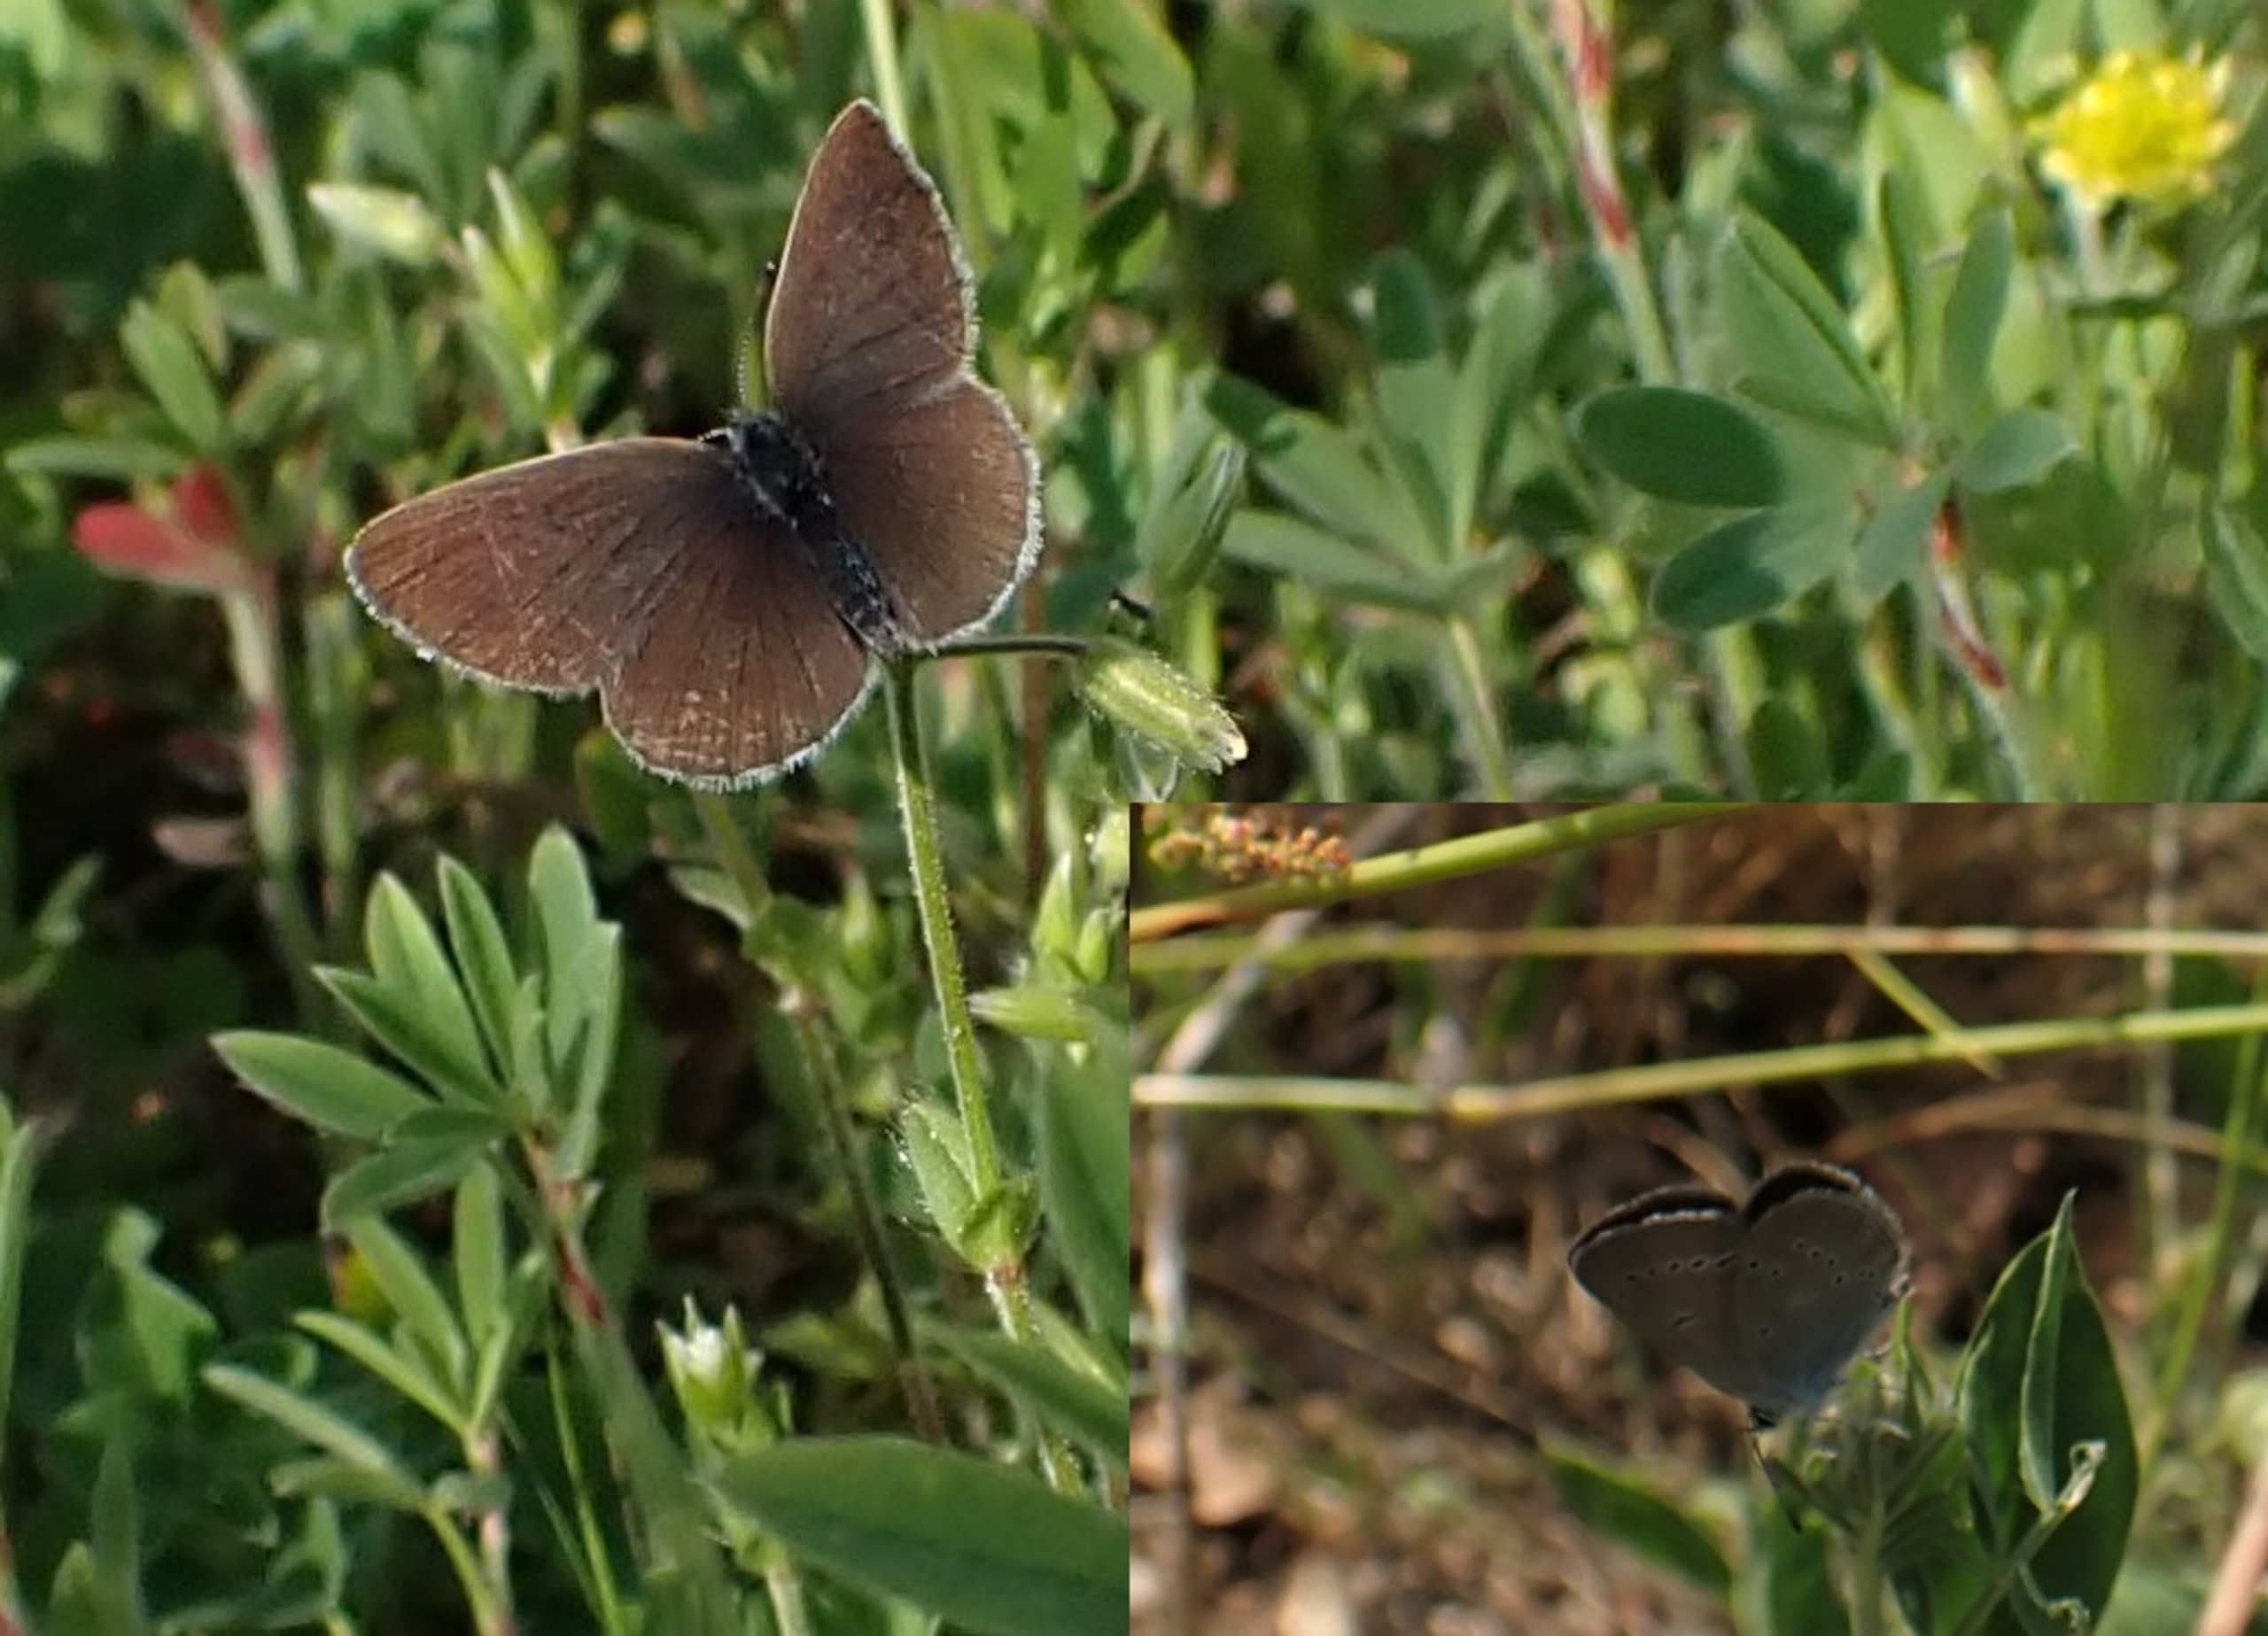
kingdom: Animalia
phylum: Arthropoda
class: Insecta
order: Lepidoptera
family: Lycaenidae
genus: Cupido
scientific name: Cupido minimus
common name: Dværgblåfugl
